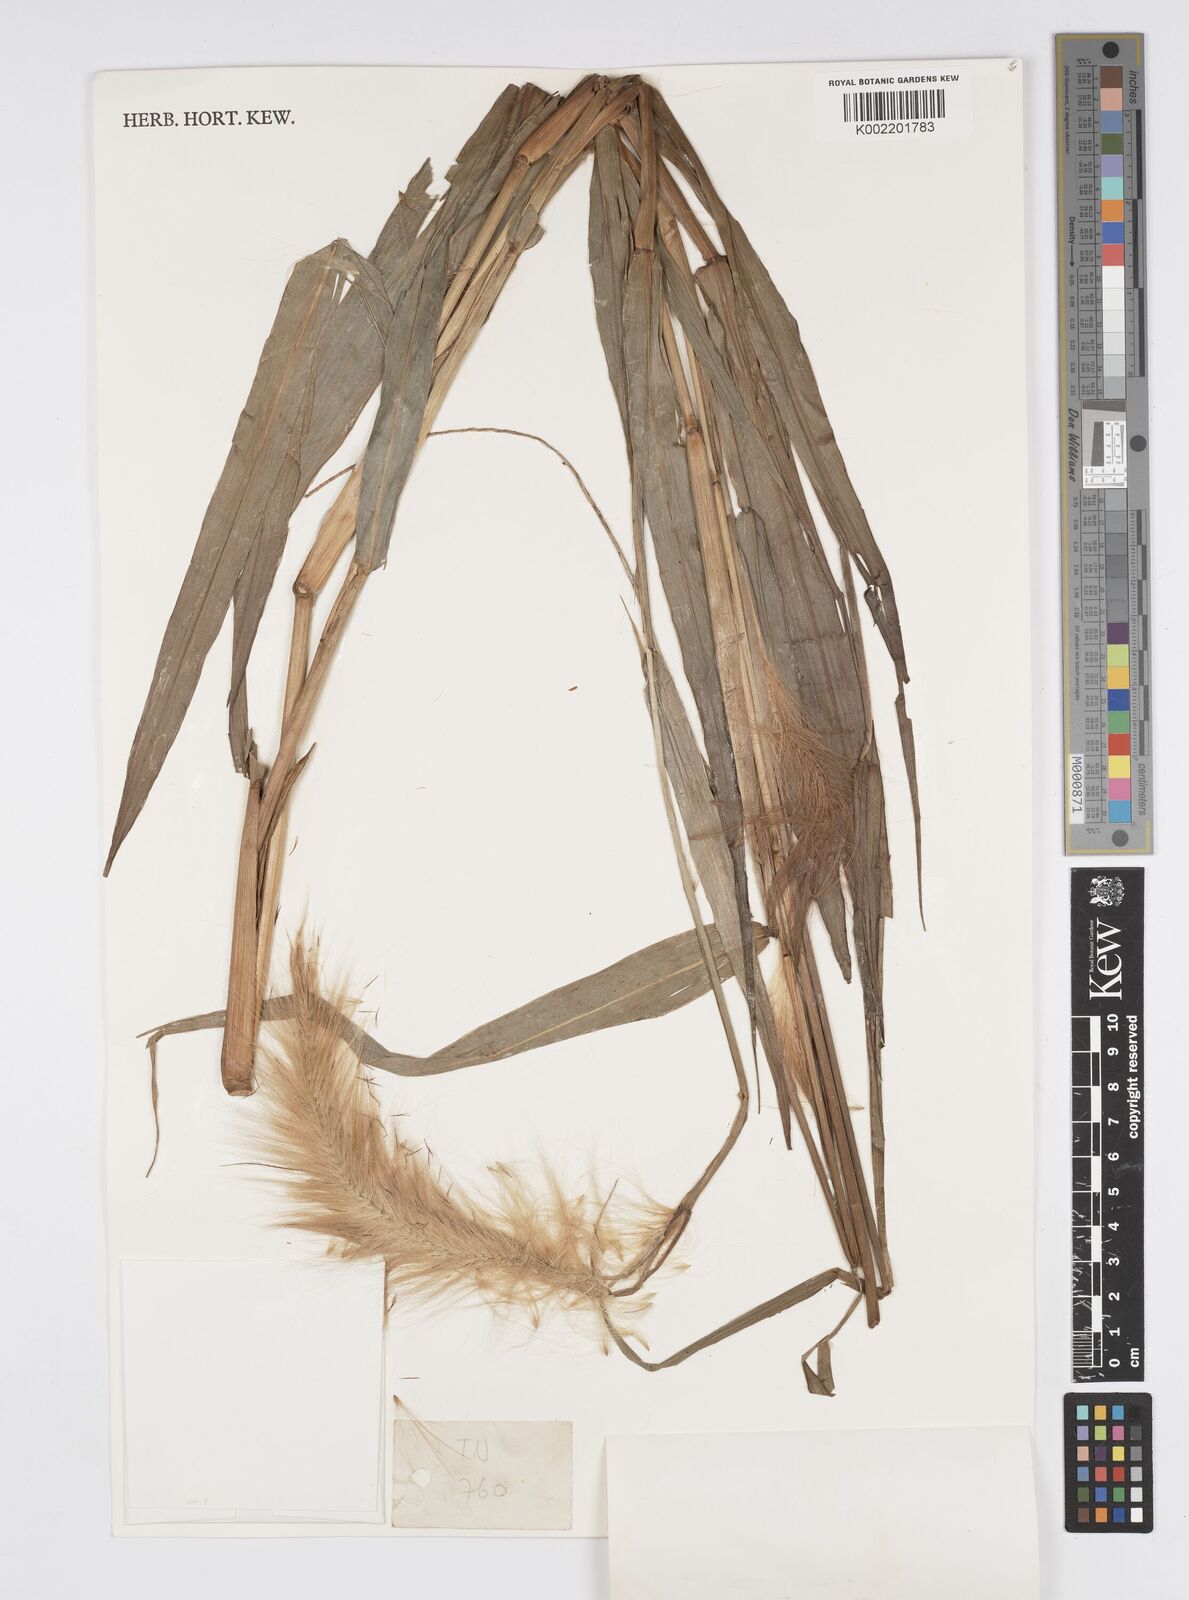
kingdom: Plantae
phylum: Tracheophyta
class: Liliopsida
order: Poales
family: Poaceae
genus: Cenchrus
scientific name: Cenchrus purpureus
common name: Elephant grass
